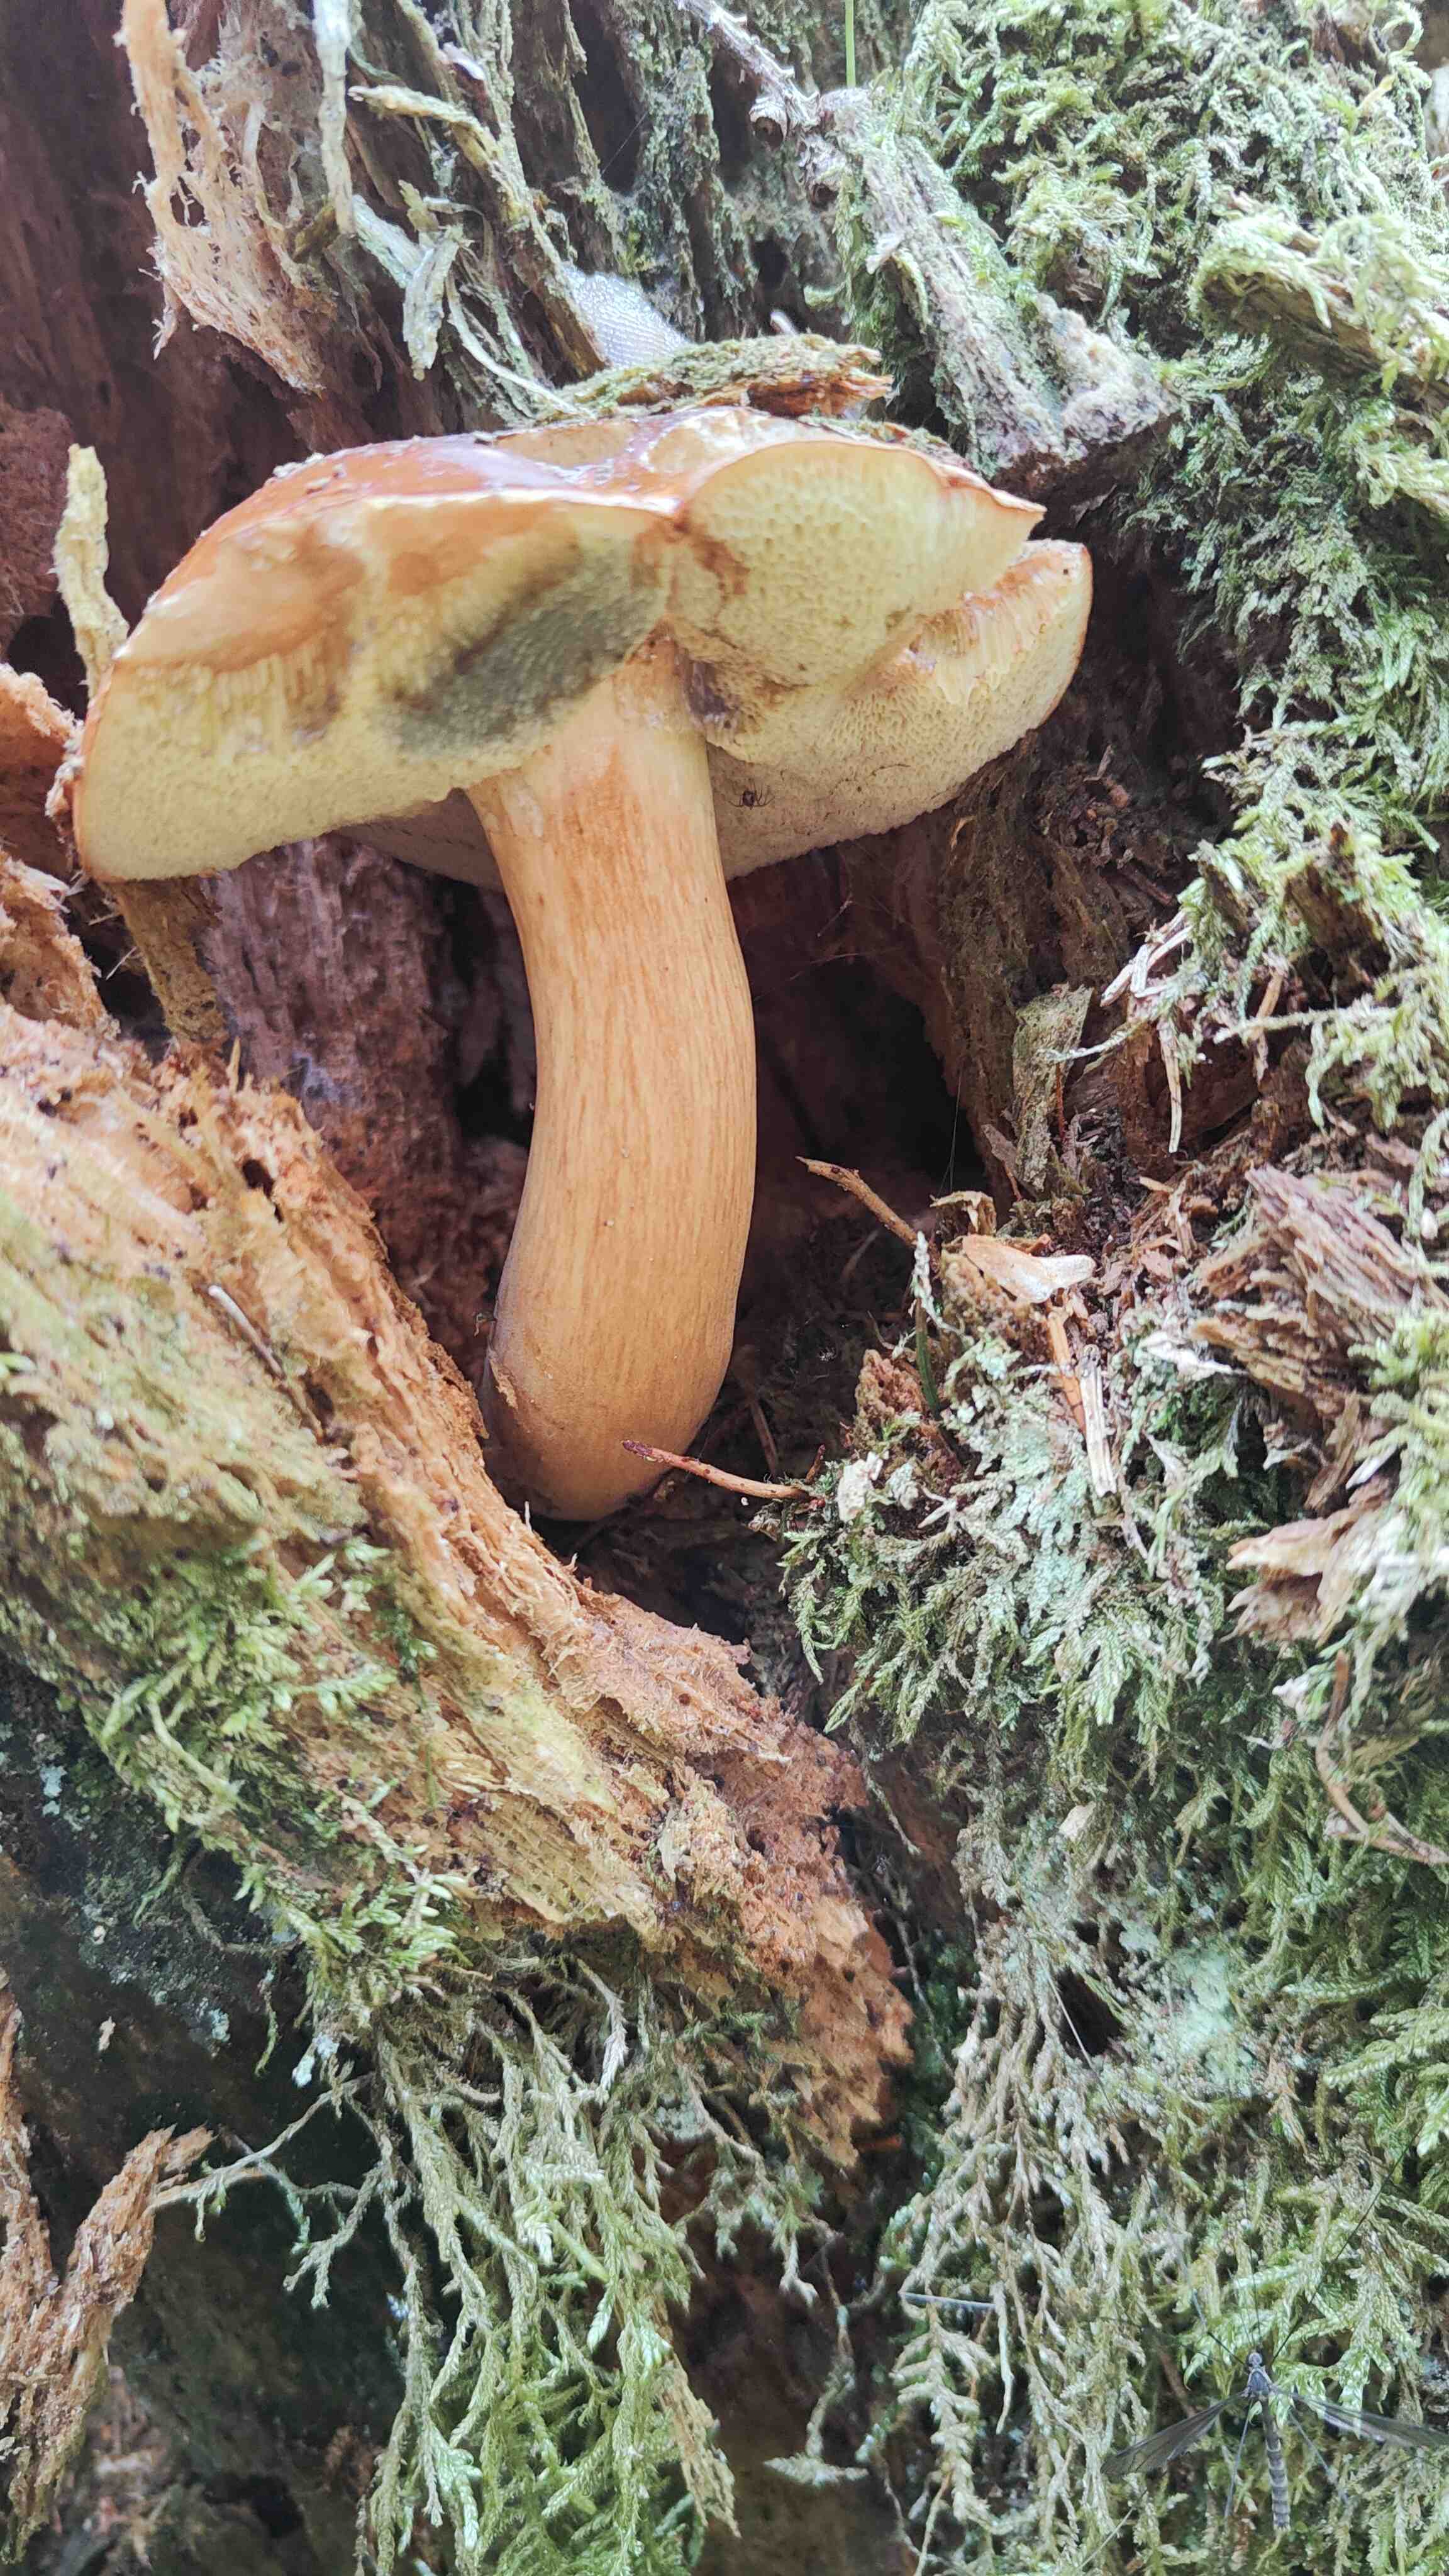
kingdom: Fungi
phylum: Basidiomycota
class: Agaricomycetes
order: Boletales
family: Boletaceae
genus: Imleria
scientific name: Imleria badia
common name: brunstokket rørhat
